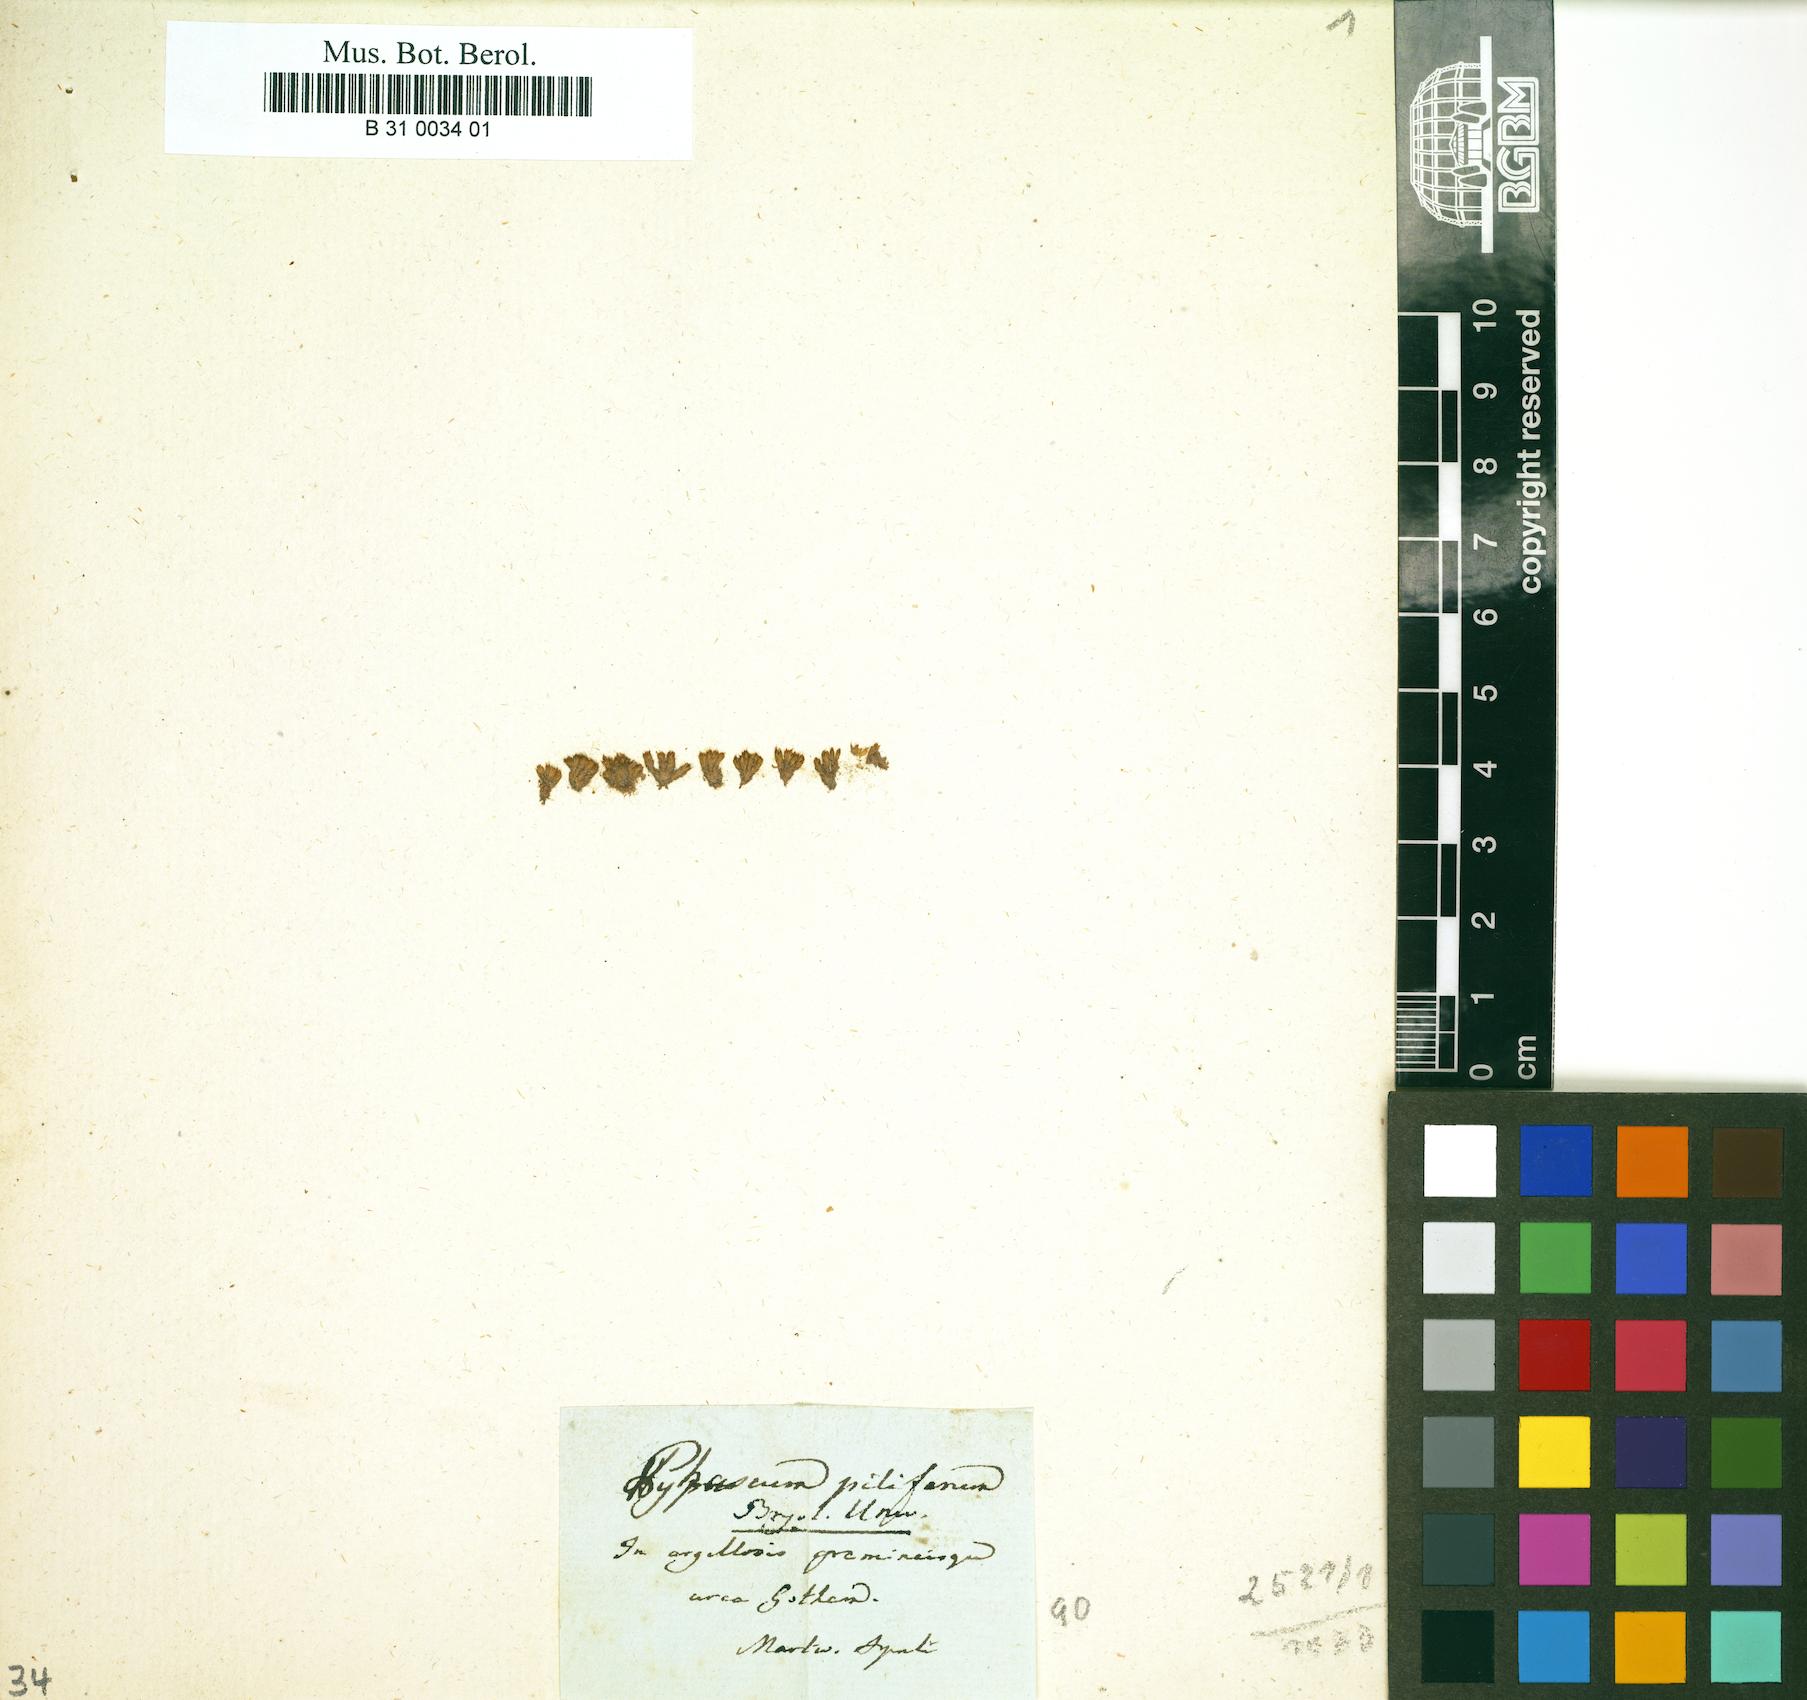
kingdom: Plantae
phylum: Bryophyta
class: Bryopsida
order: Pottiales
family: Pottiaceae
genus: Tortula
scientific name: Tortula acaulon
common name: Cuspidate earth moss
